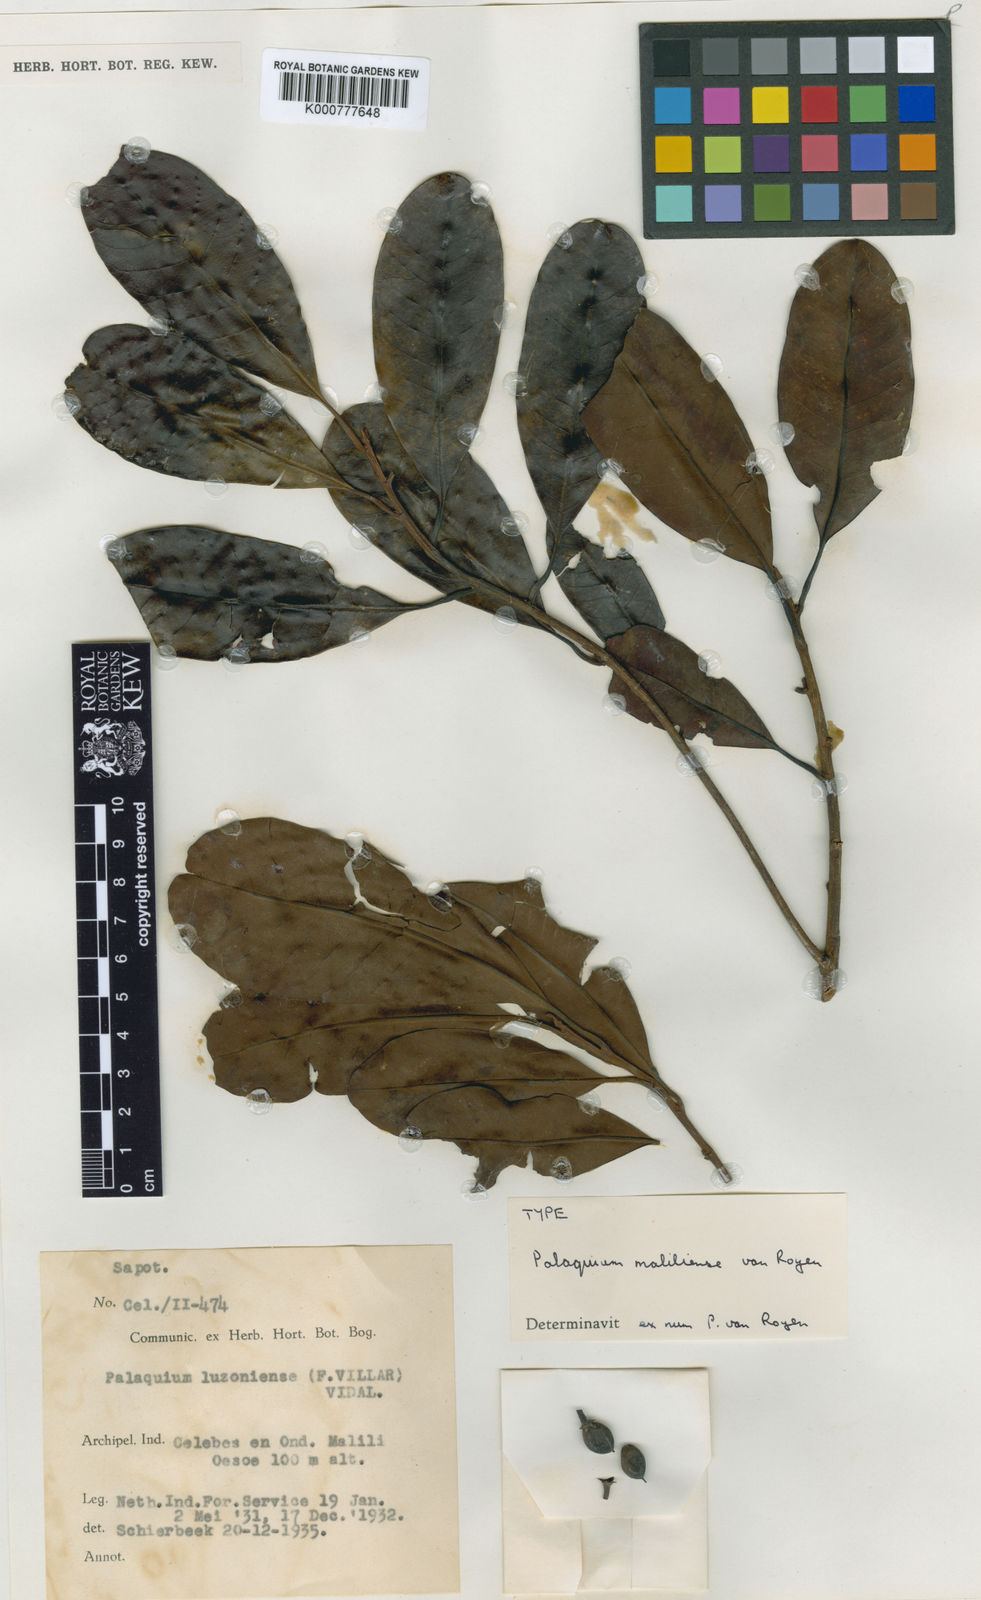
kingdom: Plantae
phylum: Tracheophyta
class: Magnoliopsida
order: Ericales
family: Sapotaceae
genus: Palaquium
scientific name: Palaquium maliliense
